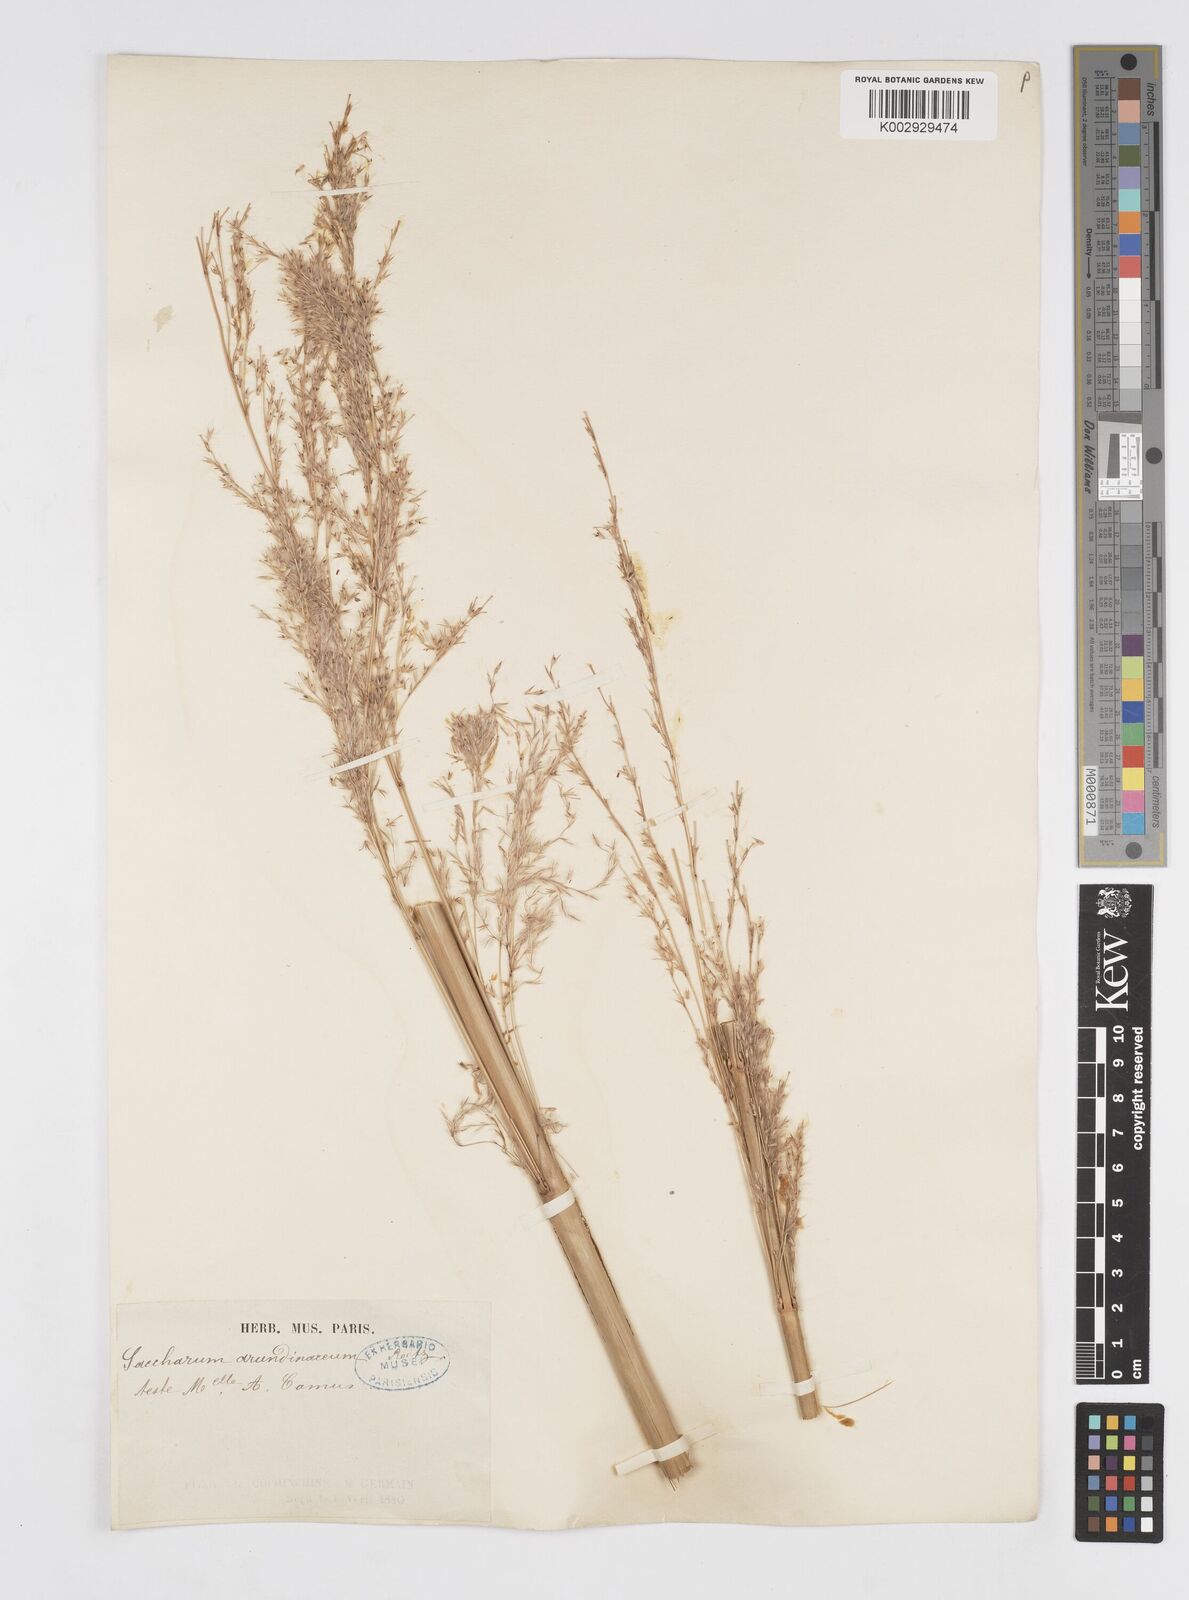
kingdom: Plantae
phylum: Tracheophyta
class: Liliopsida
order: Poales
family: Poaceae
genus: Tripidium
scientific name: Tripidium arundinaceum
